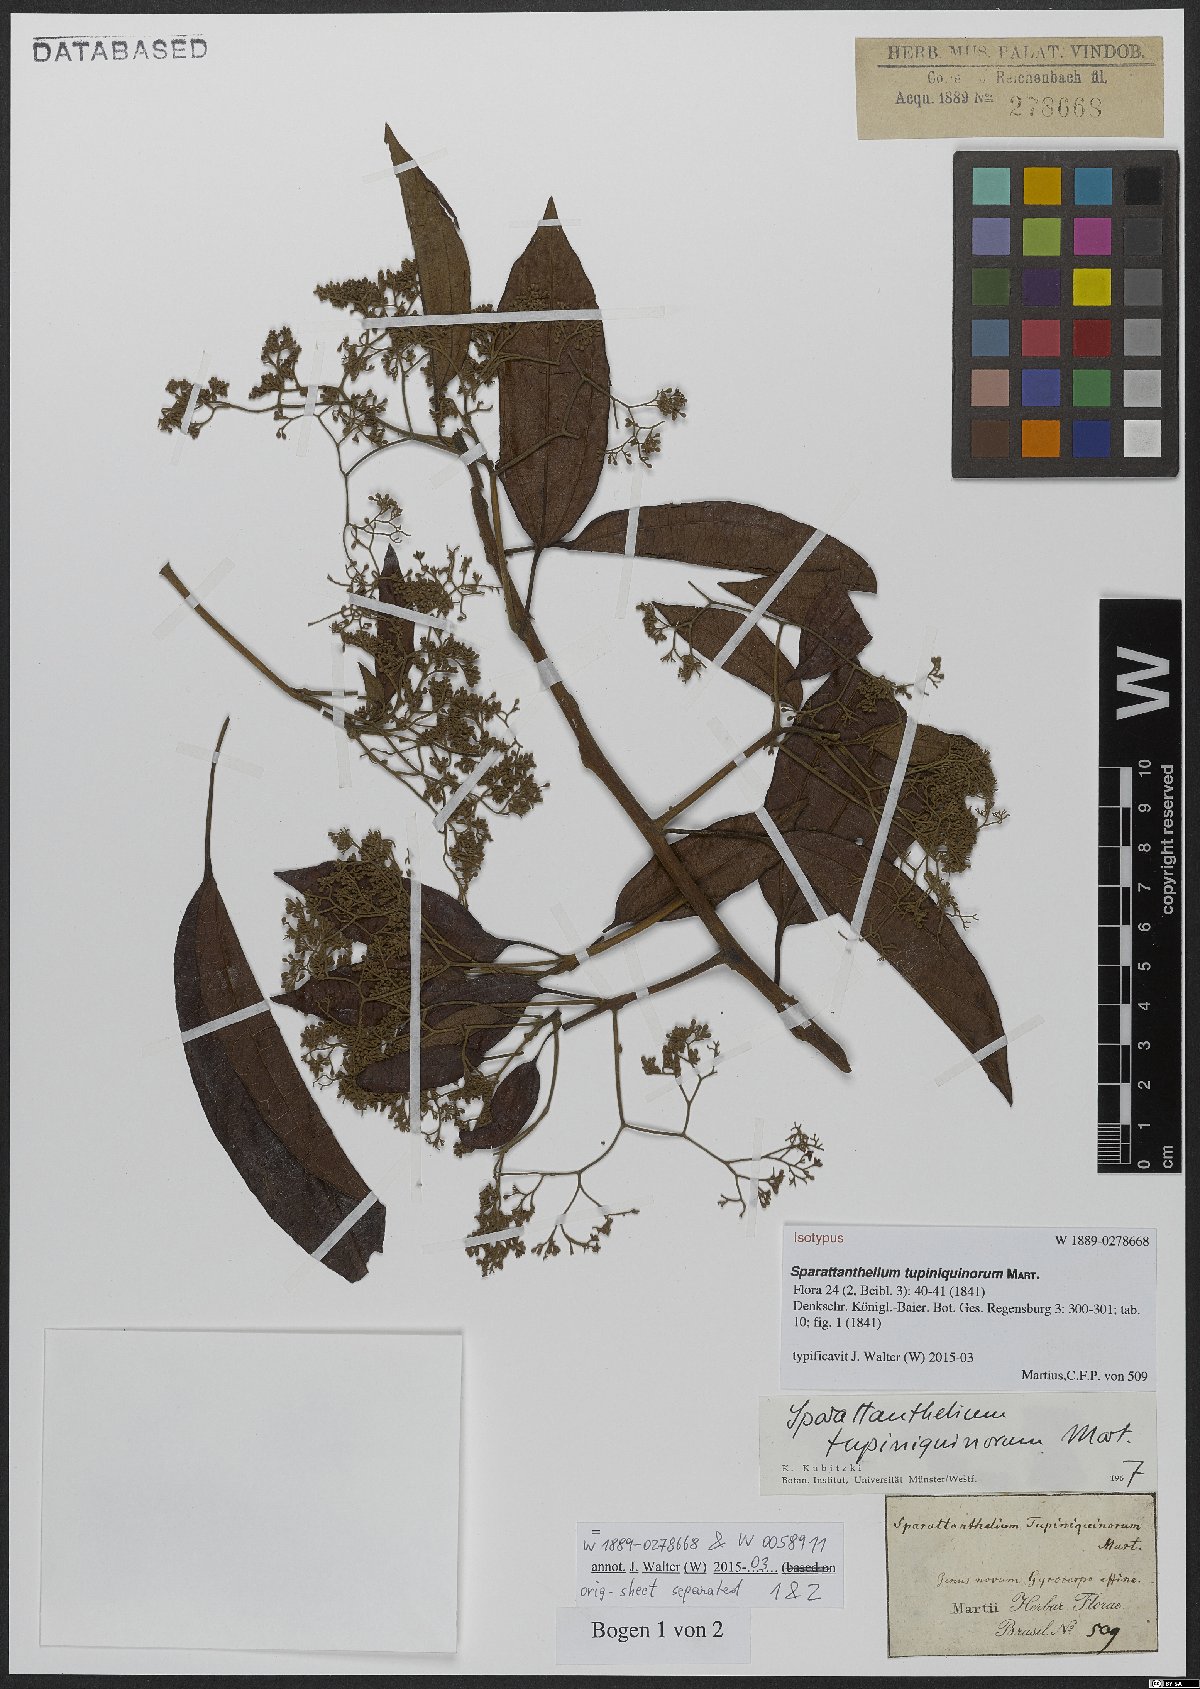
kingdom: Plantae
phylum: Tracheophyta
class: Magnoliopsida
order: Laurales
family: Hernandiaceae
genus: Sparattanthelium
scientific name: Sparattanthelium tupiniquinorum
